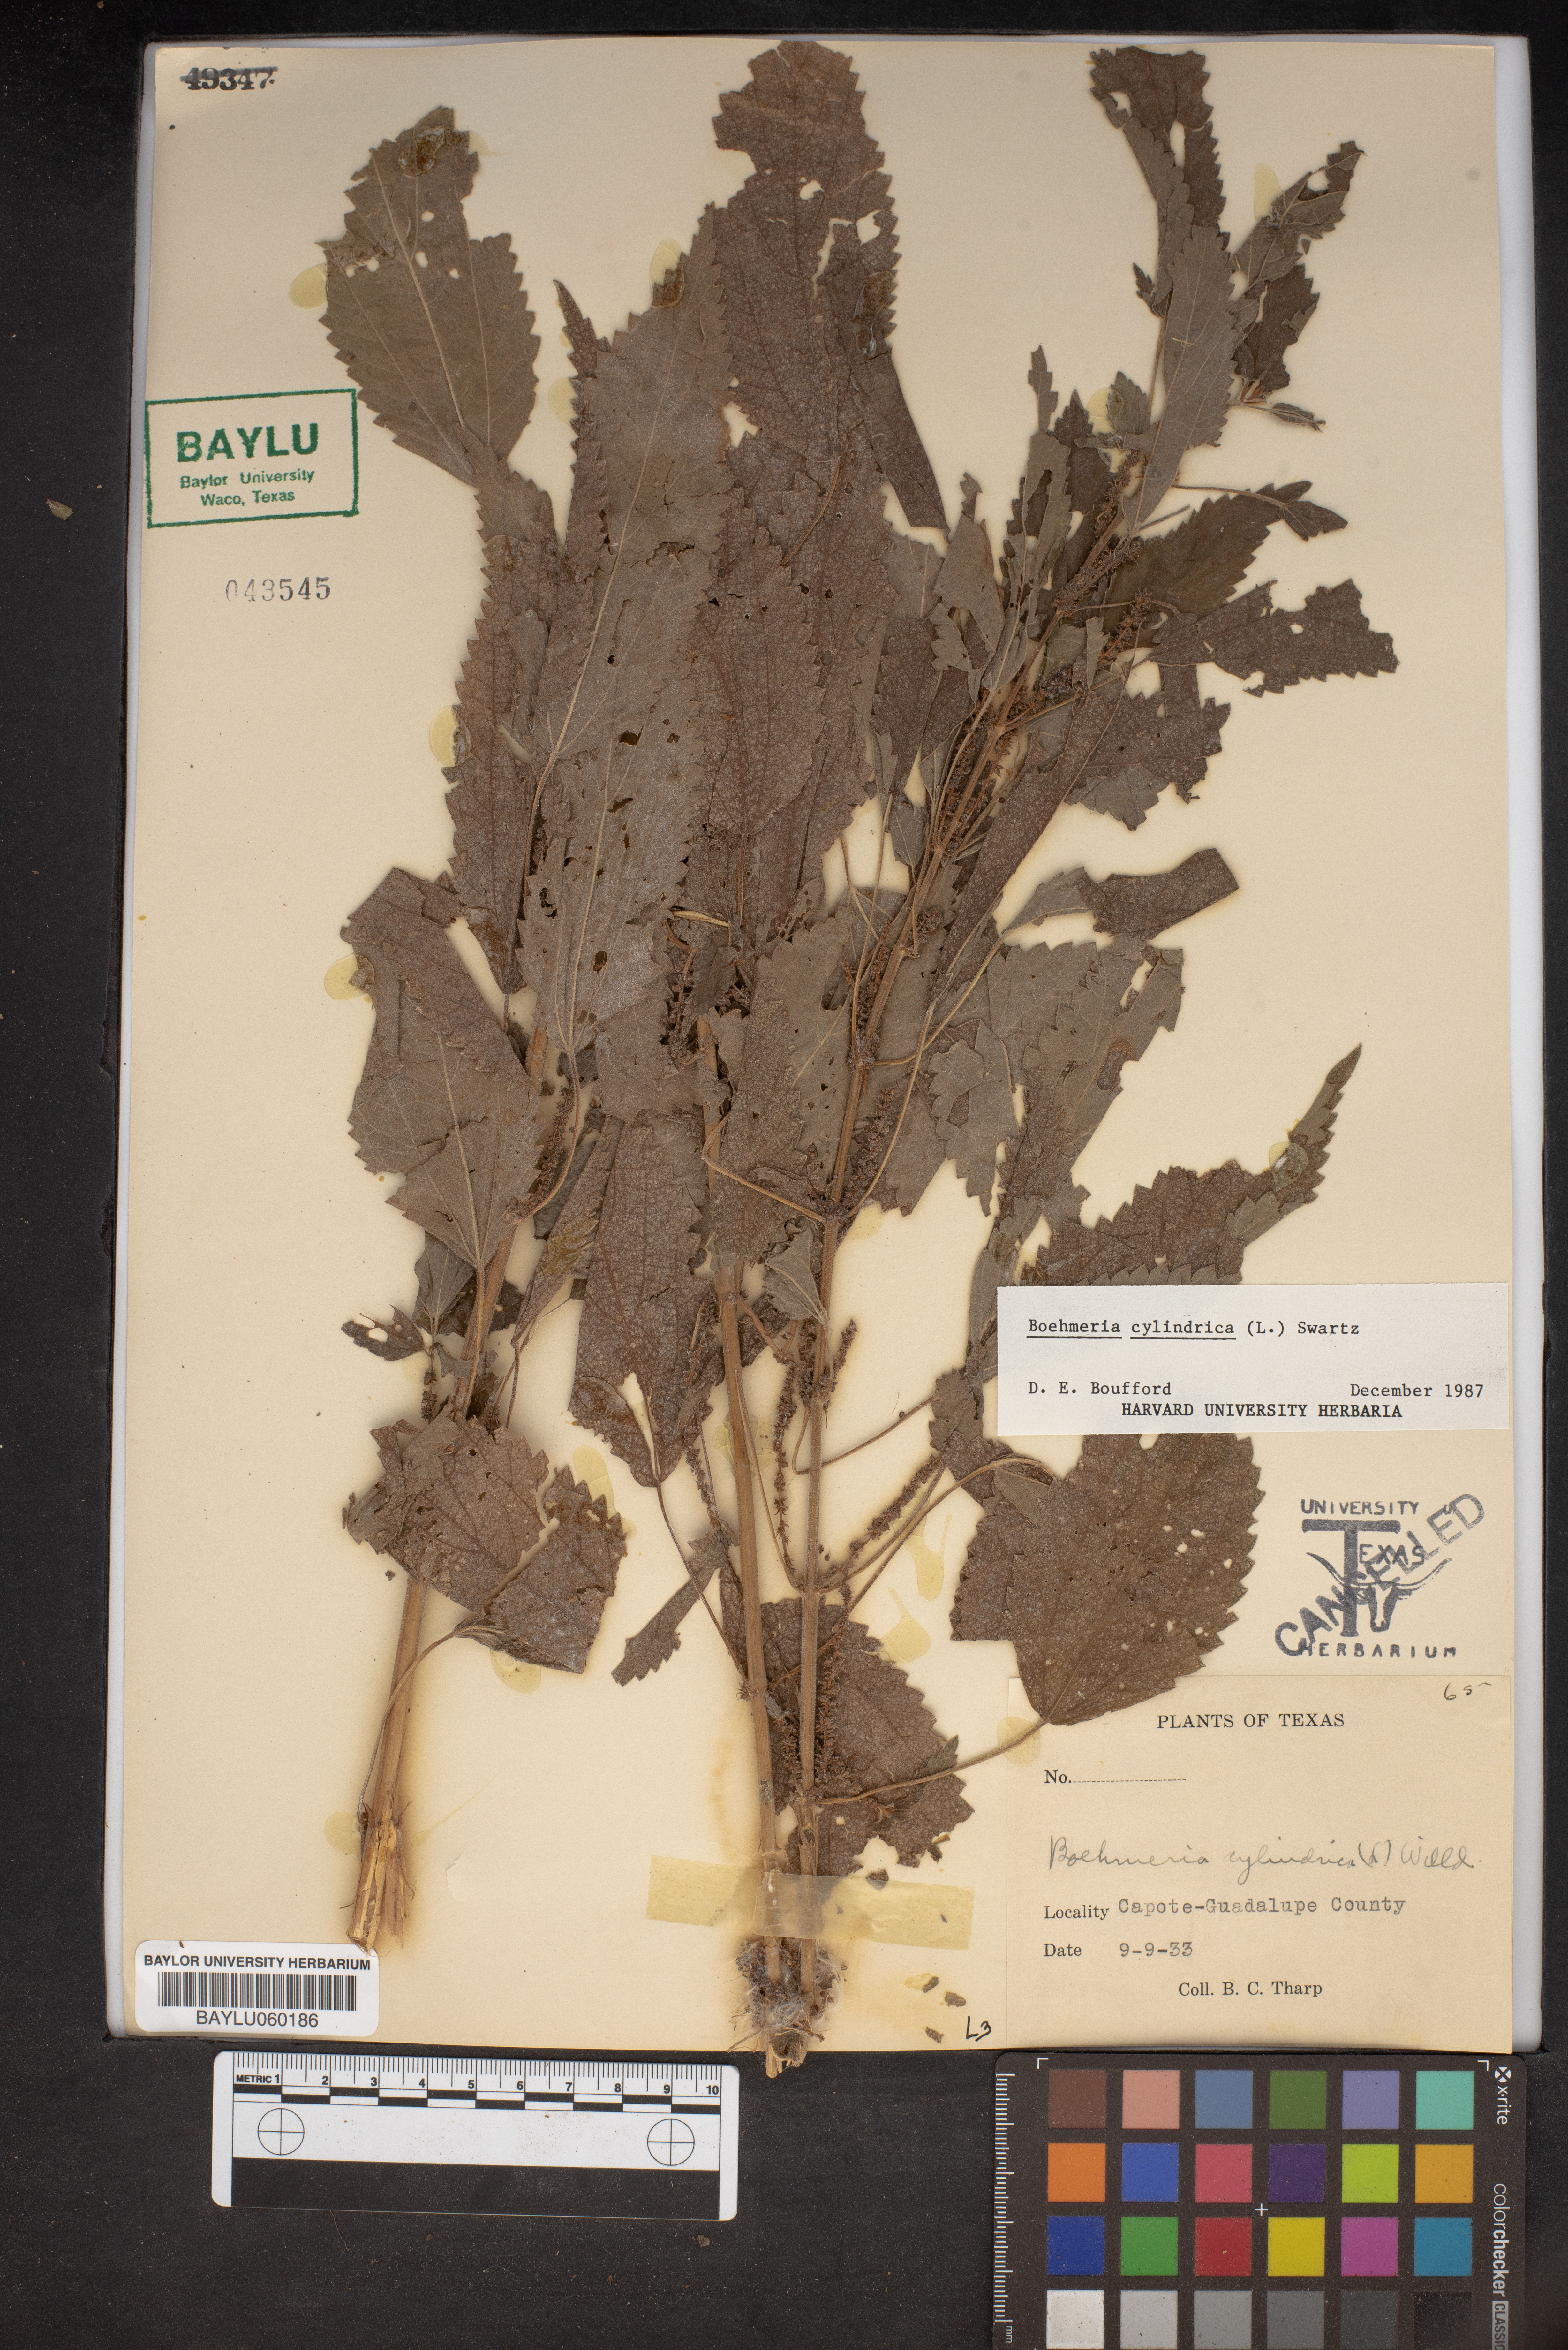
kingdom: Plantae
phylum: Tracheophyta
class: Magnoliopsida
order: Rosales
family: Urticaceae
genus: Boehmeria
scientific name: Boehmeria cylindrica
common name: Bog-hemp
